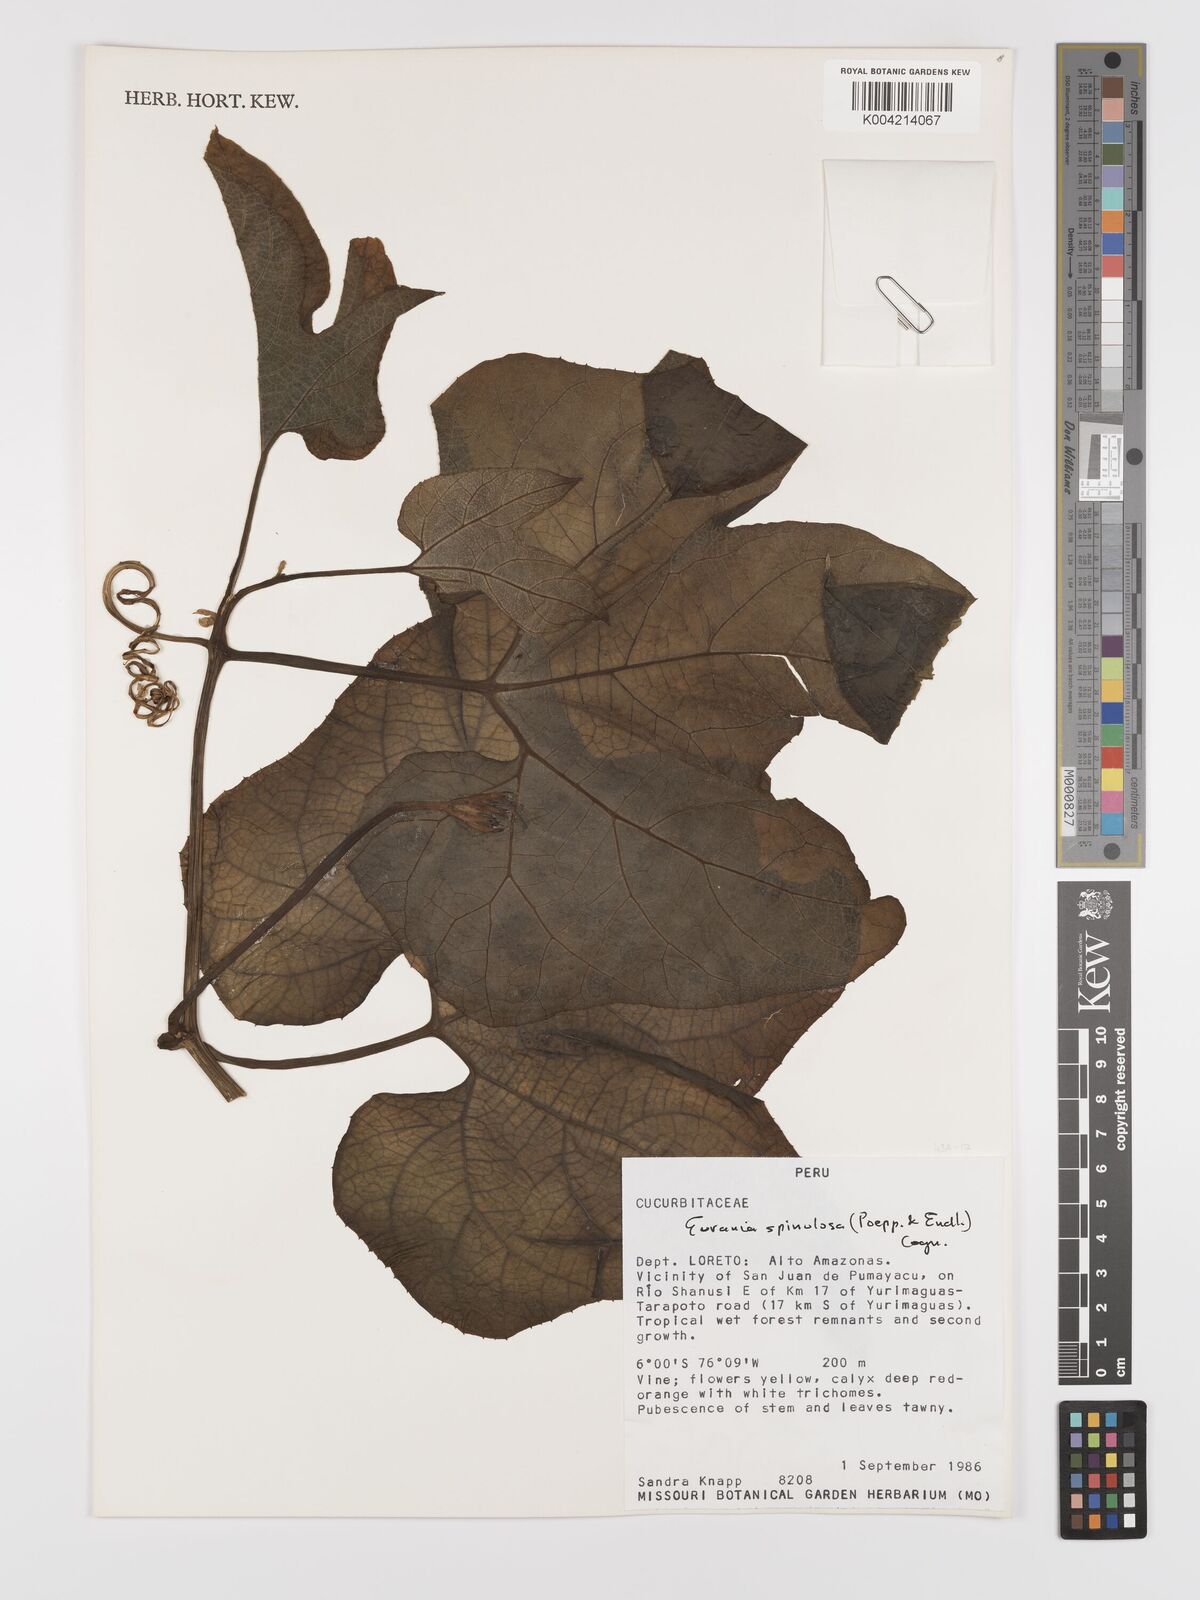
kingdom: Plantae
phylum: Tracheophyta
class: Magnoliopsida
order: Cucurbitales
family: Cucurbitaceae
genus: Gurania
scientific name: Gurania lobata
